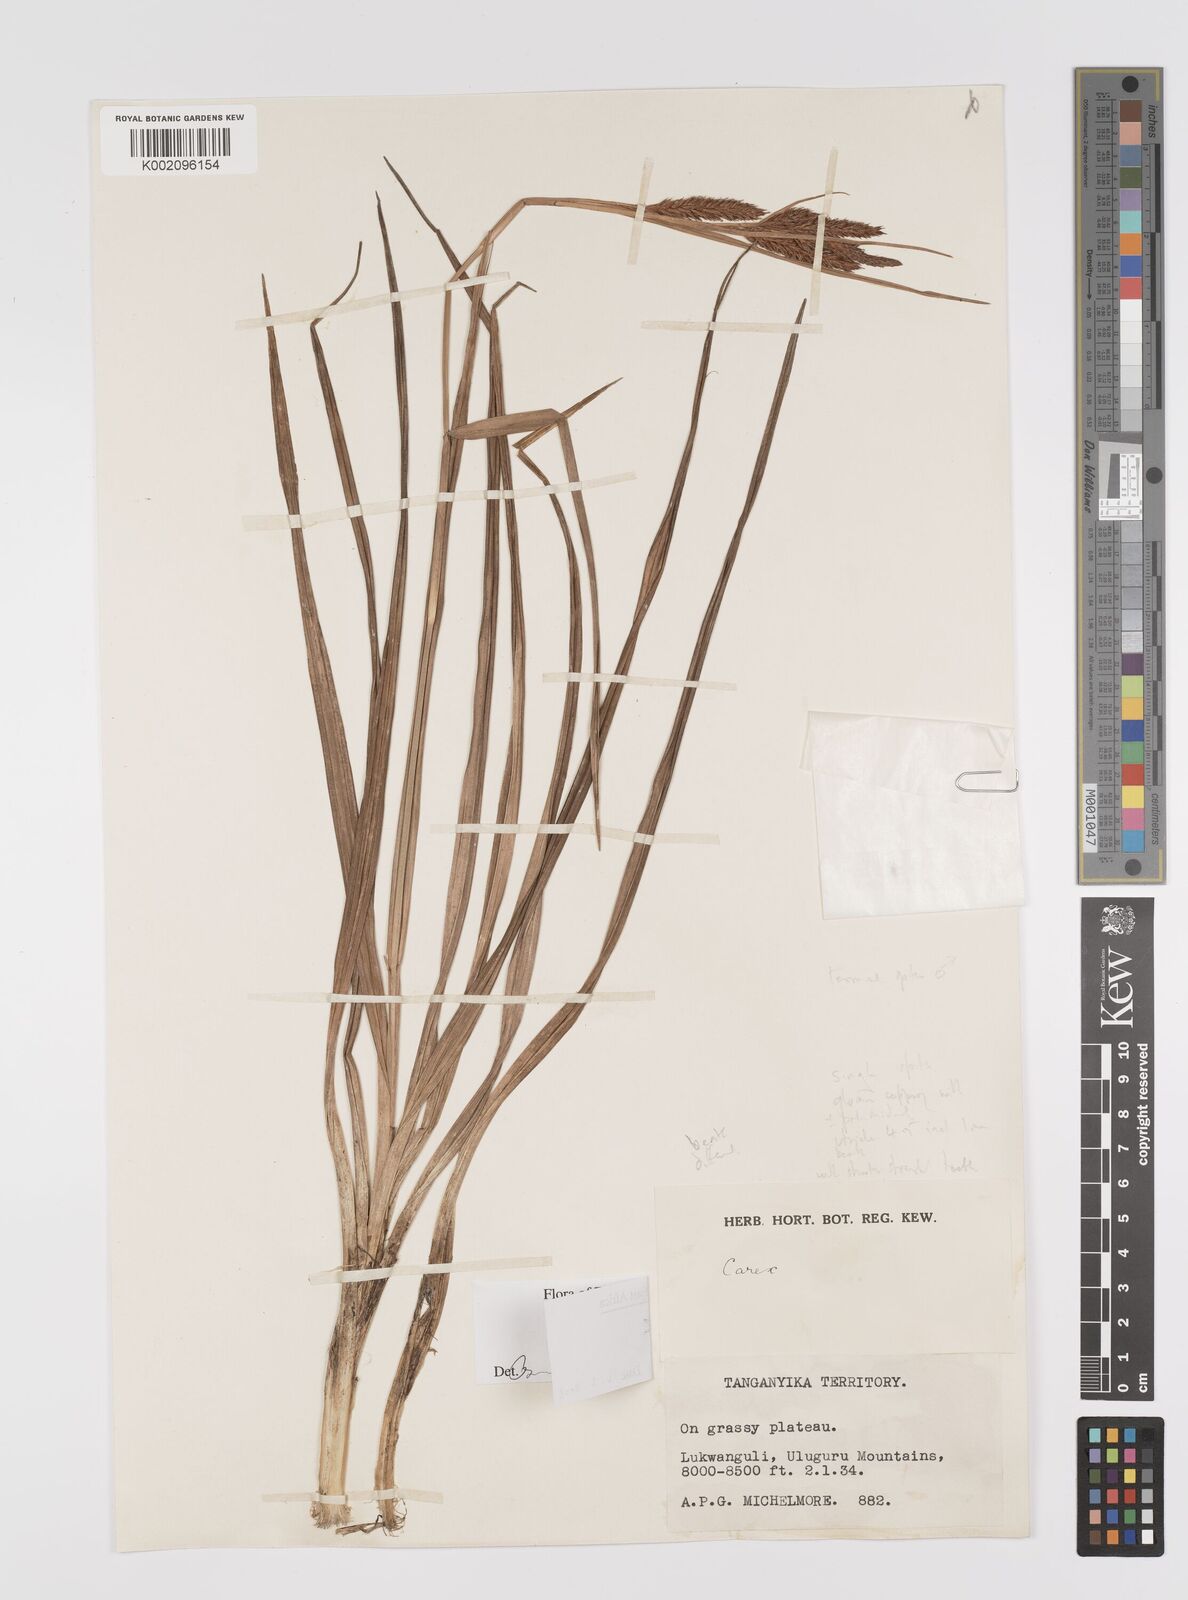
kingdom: Plantae
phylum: Tracheophyta
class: Liliopsida
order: Poales
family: Cyperaceae
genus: Carex
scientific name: Carex
